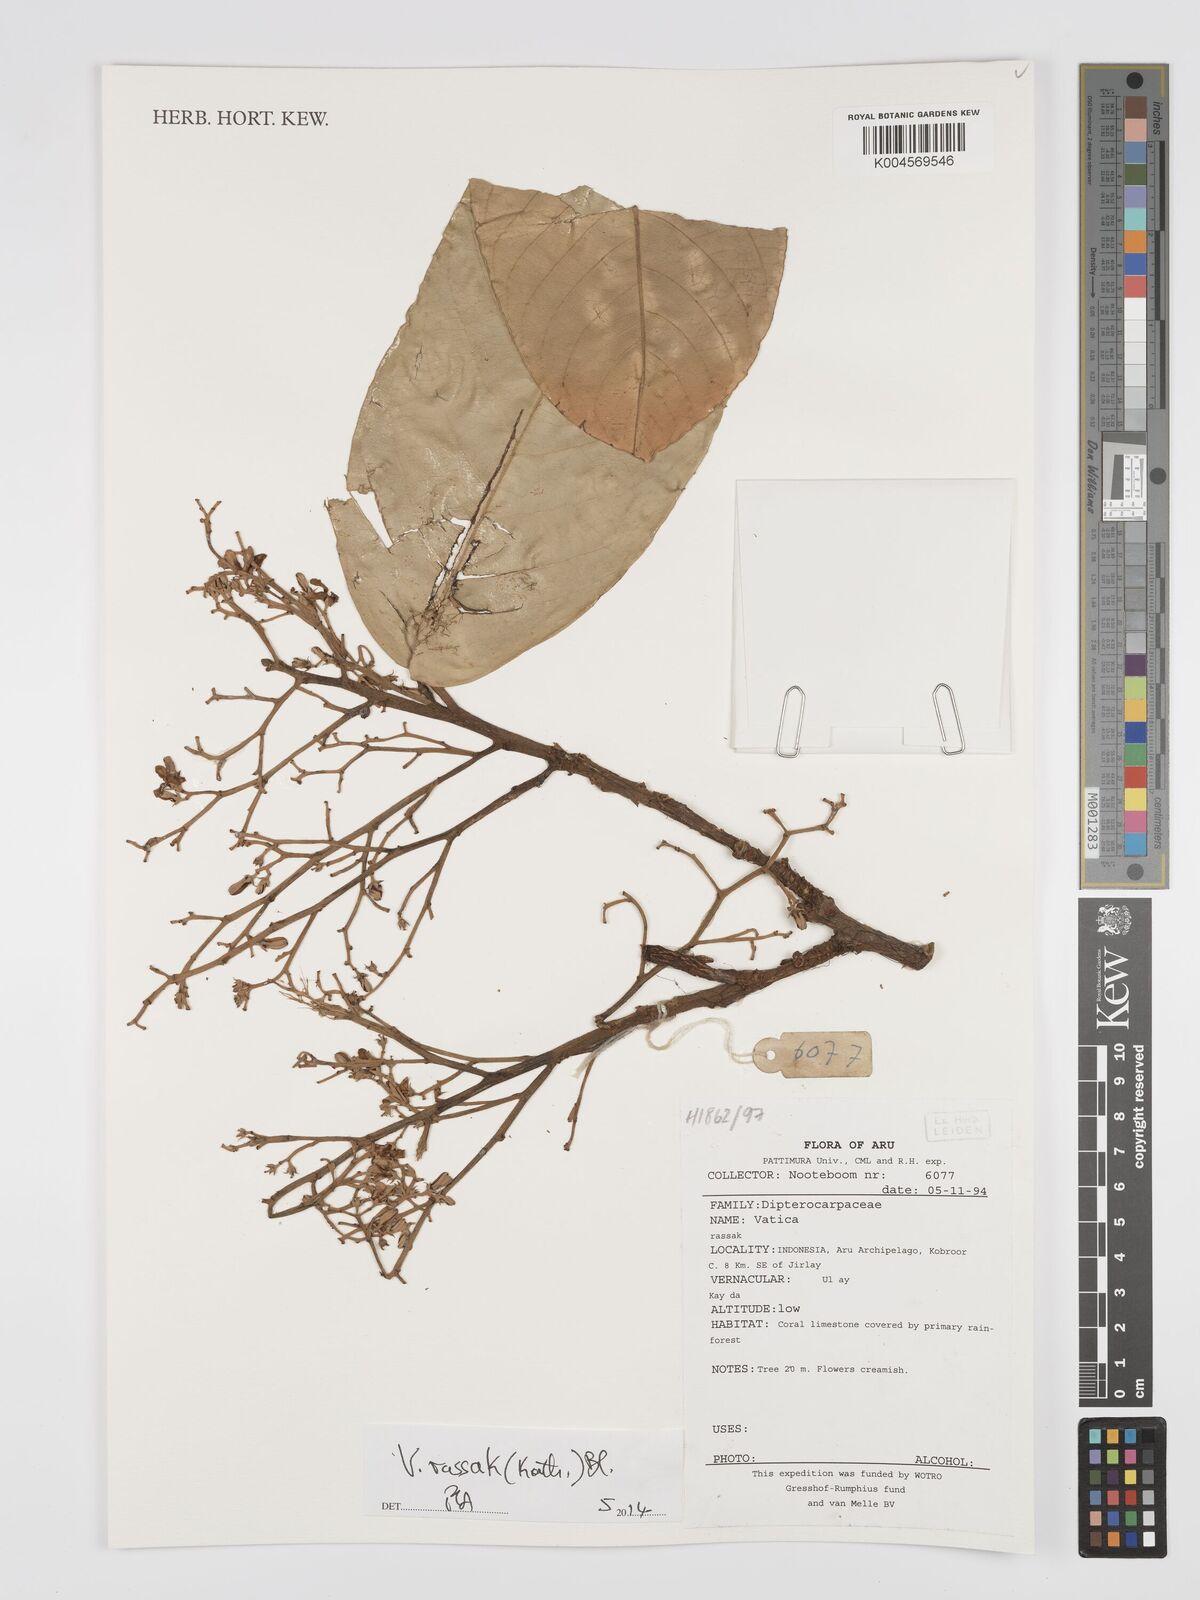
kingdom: Plantae
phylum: Tracheophyta
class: Magnoliopsida
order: Malvales
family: Dipterocarpaceae
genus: Vatica
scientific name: Vatica rassak
